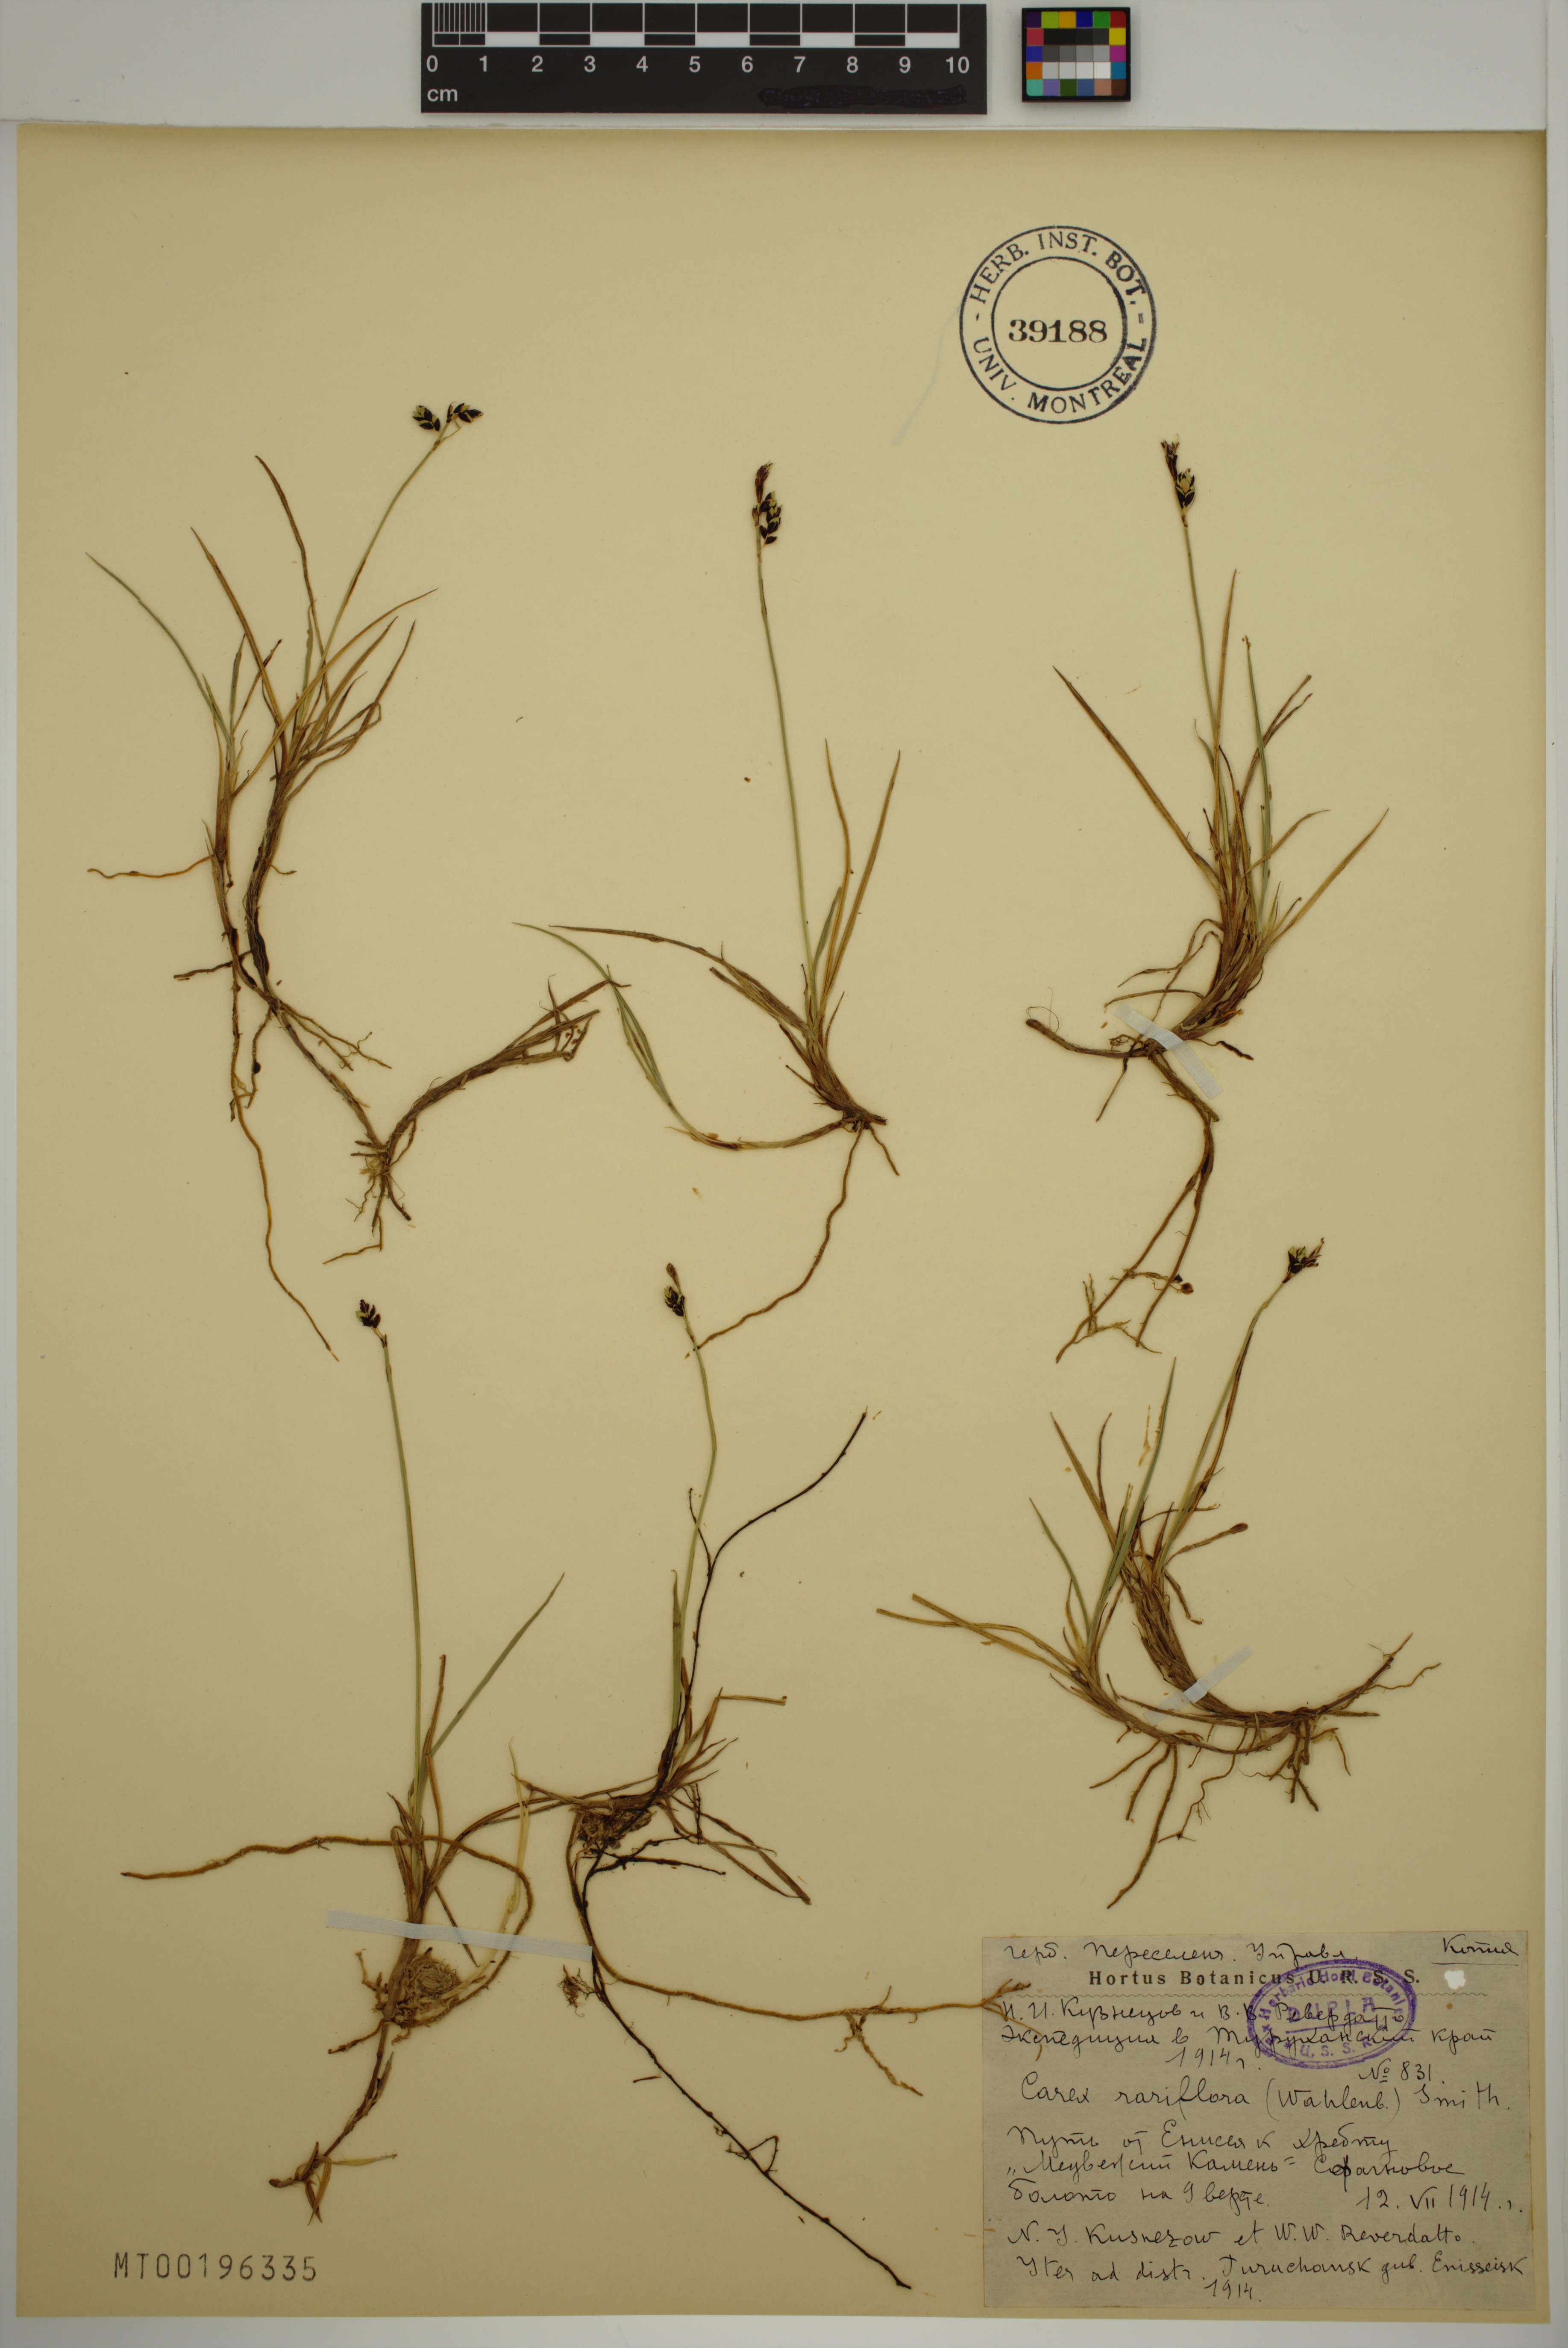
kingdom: Plantae
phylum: Tracheophyta
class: Liliopsida
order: Poales
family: Cyperaceae
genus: Carex
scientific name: Carex rariflora
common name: Loose-flowered alpine sedge
